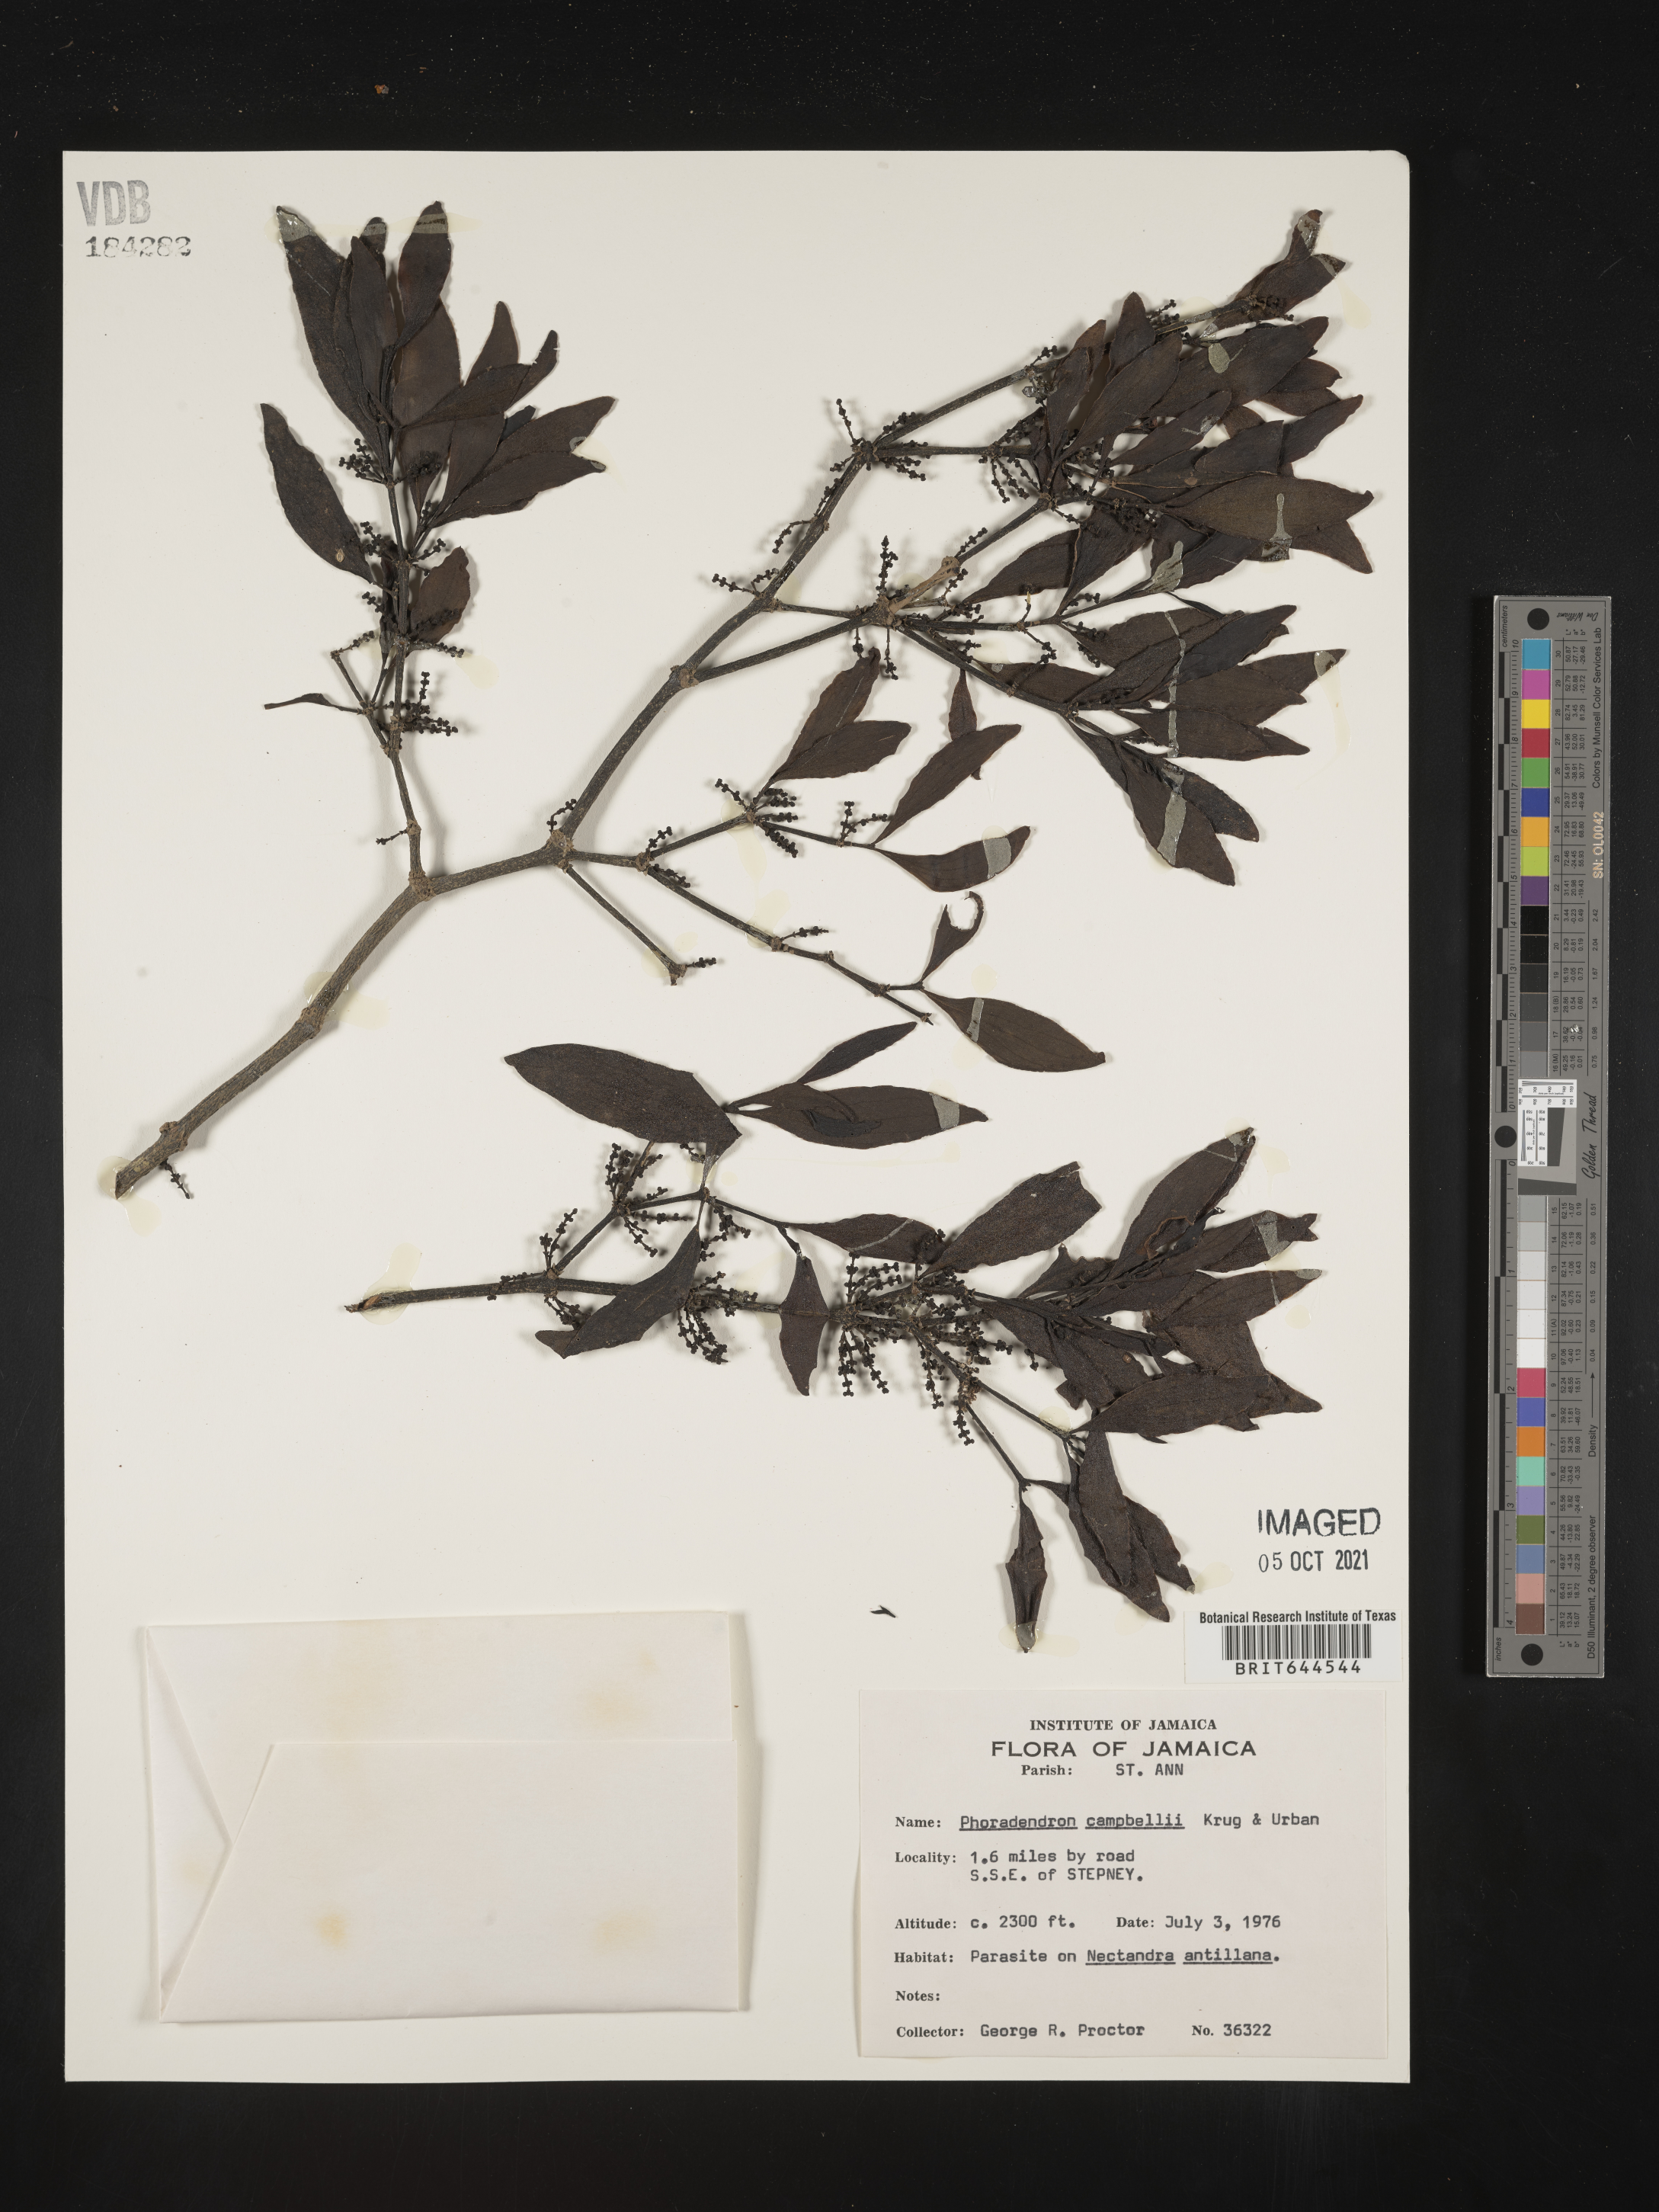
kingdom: Plantae
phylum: Tracheophyta
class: Magnoliopsida
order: Santalales
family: Viscaceae
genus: Phoradendron
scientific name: Phoradendron
